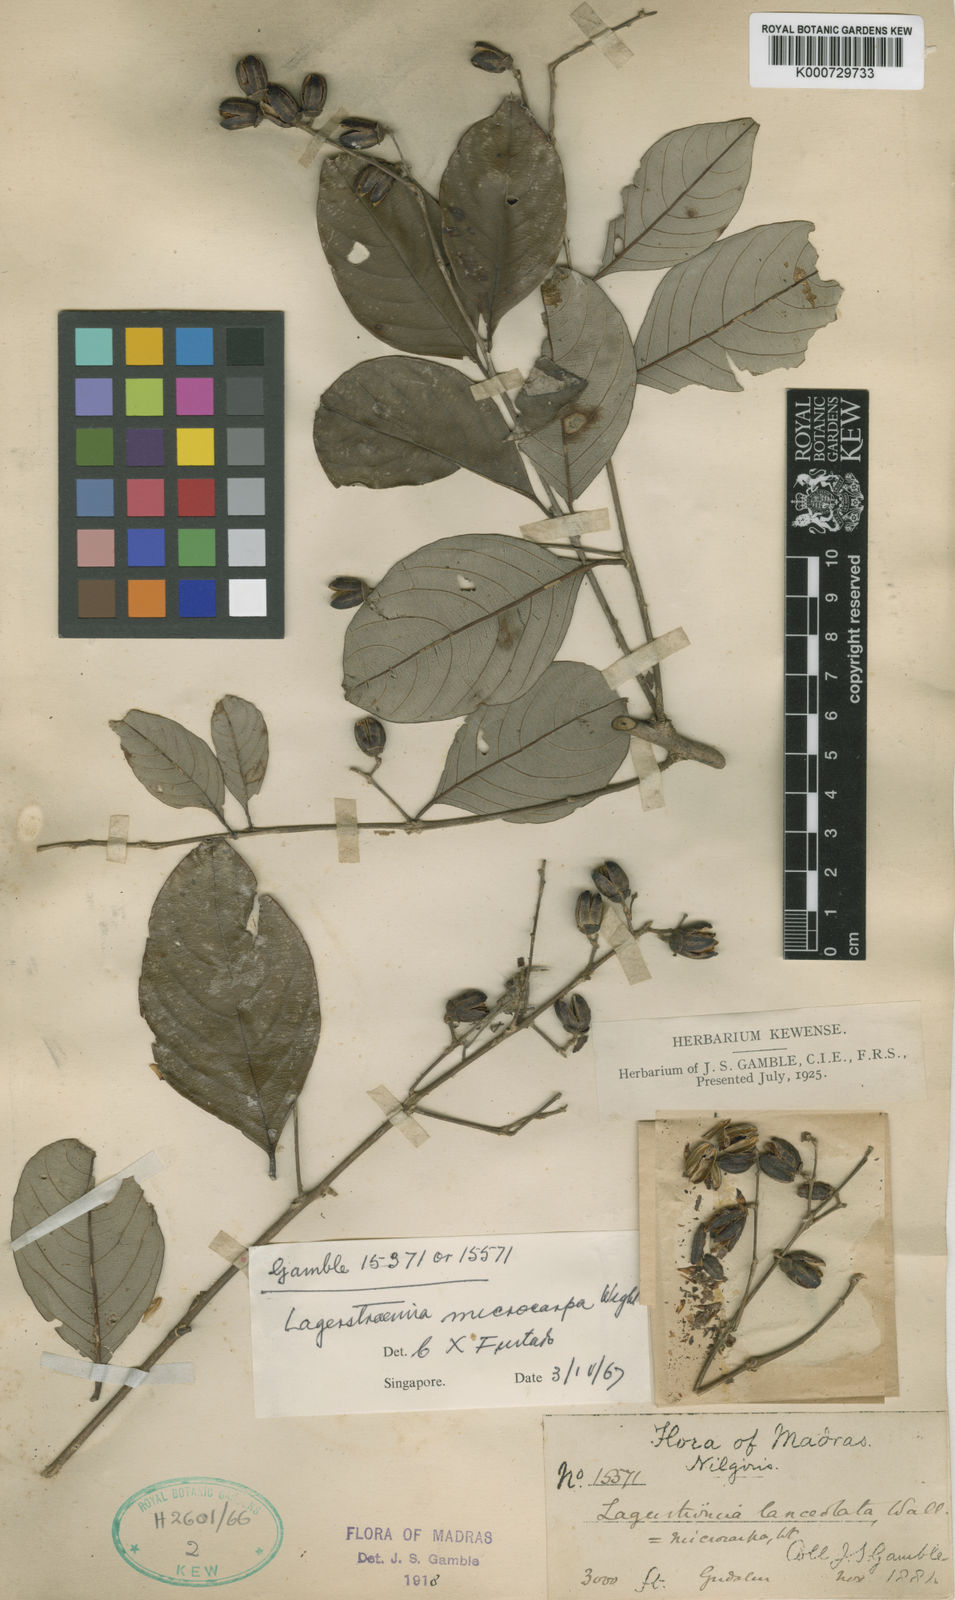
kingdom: Plantae
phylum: Tracheophyta
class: Magnoliopsida
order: Myrtales
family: Lythraceae
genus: Lagerstroemia
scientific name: Lagerstroemia microcarpa
